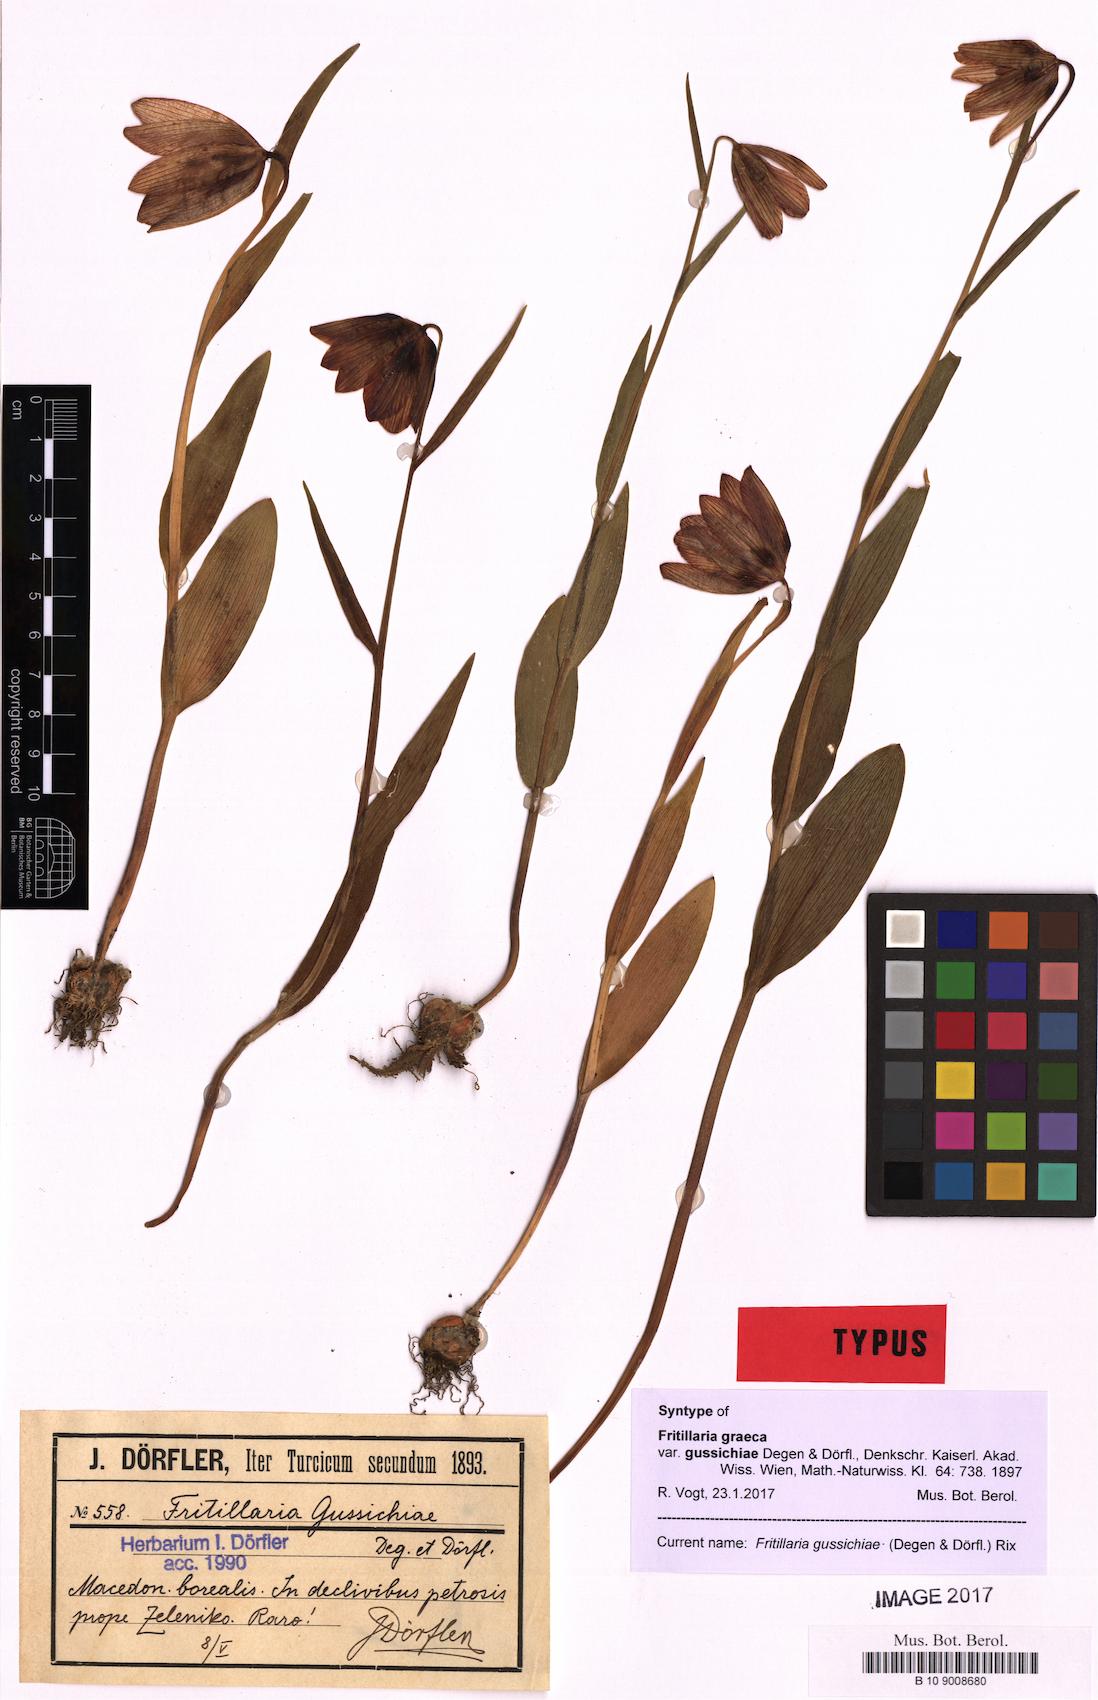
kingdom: Plantae
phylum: Tracheophyta
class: Liliopsida
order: Liliales
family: Liliaceae
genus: Fritillaria
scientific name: Fritillaria gussichiae
